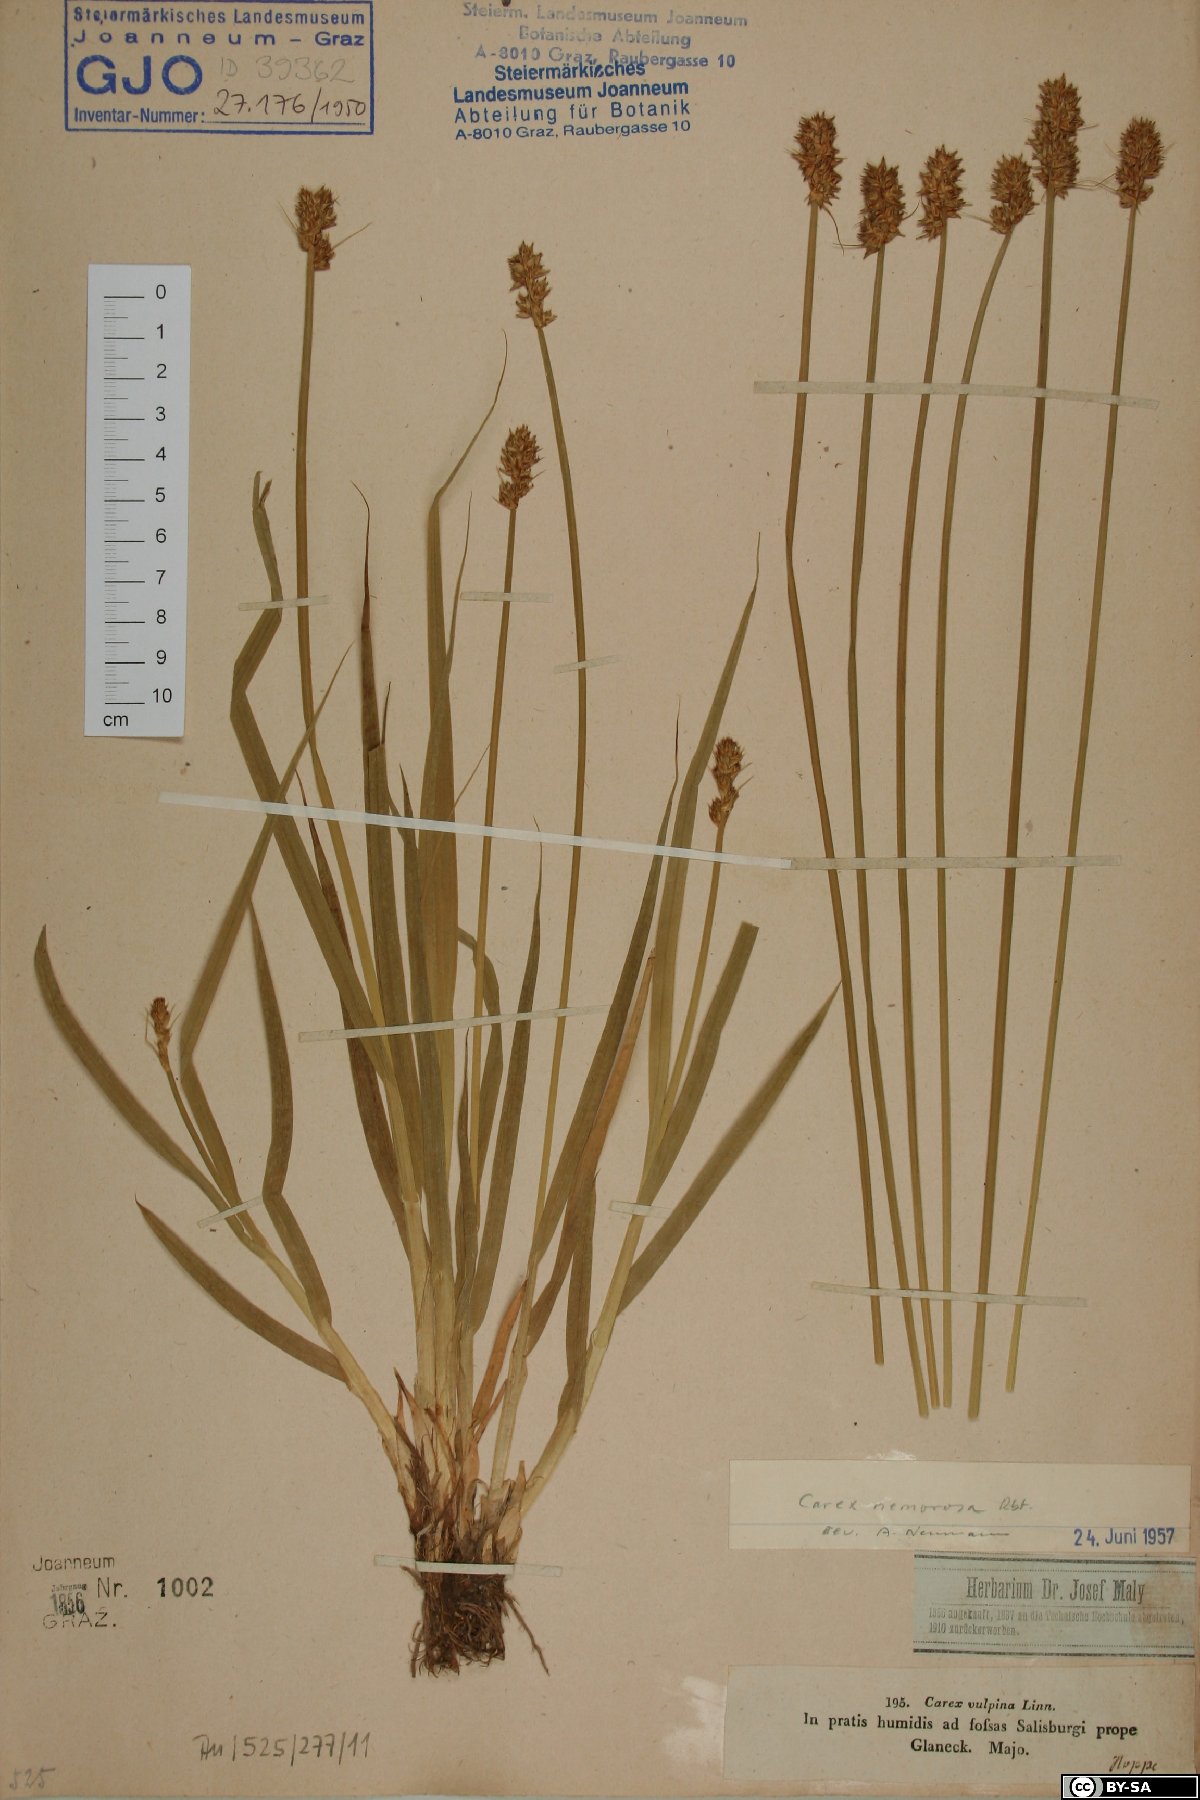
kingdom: Plantae
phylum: Tracheophyta
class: Liliopsida
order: Poales
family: Cyperaceae
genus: Carex
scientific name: Carex otrubae
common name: False fox-sedge
